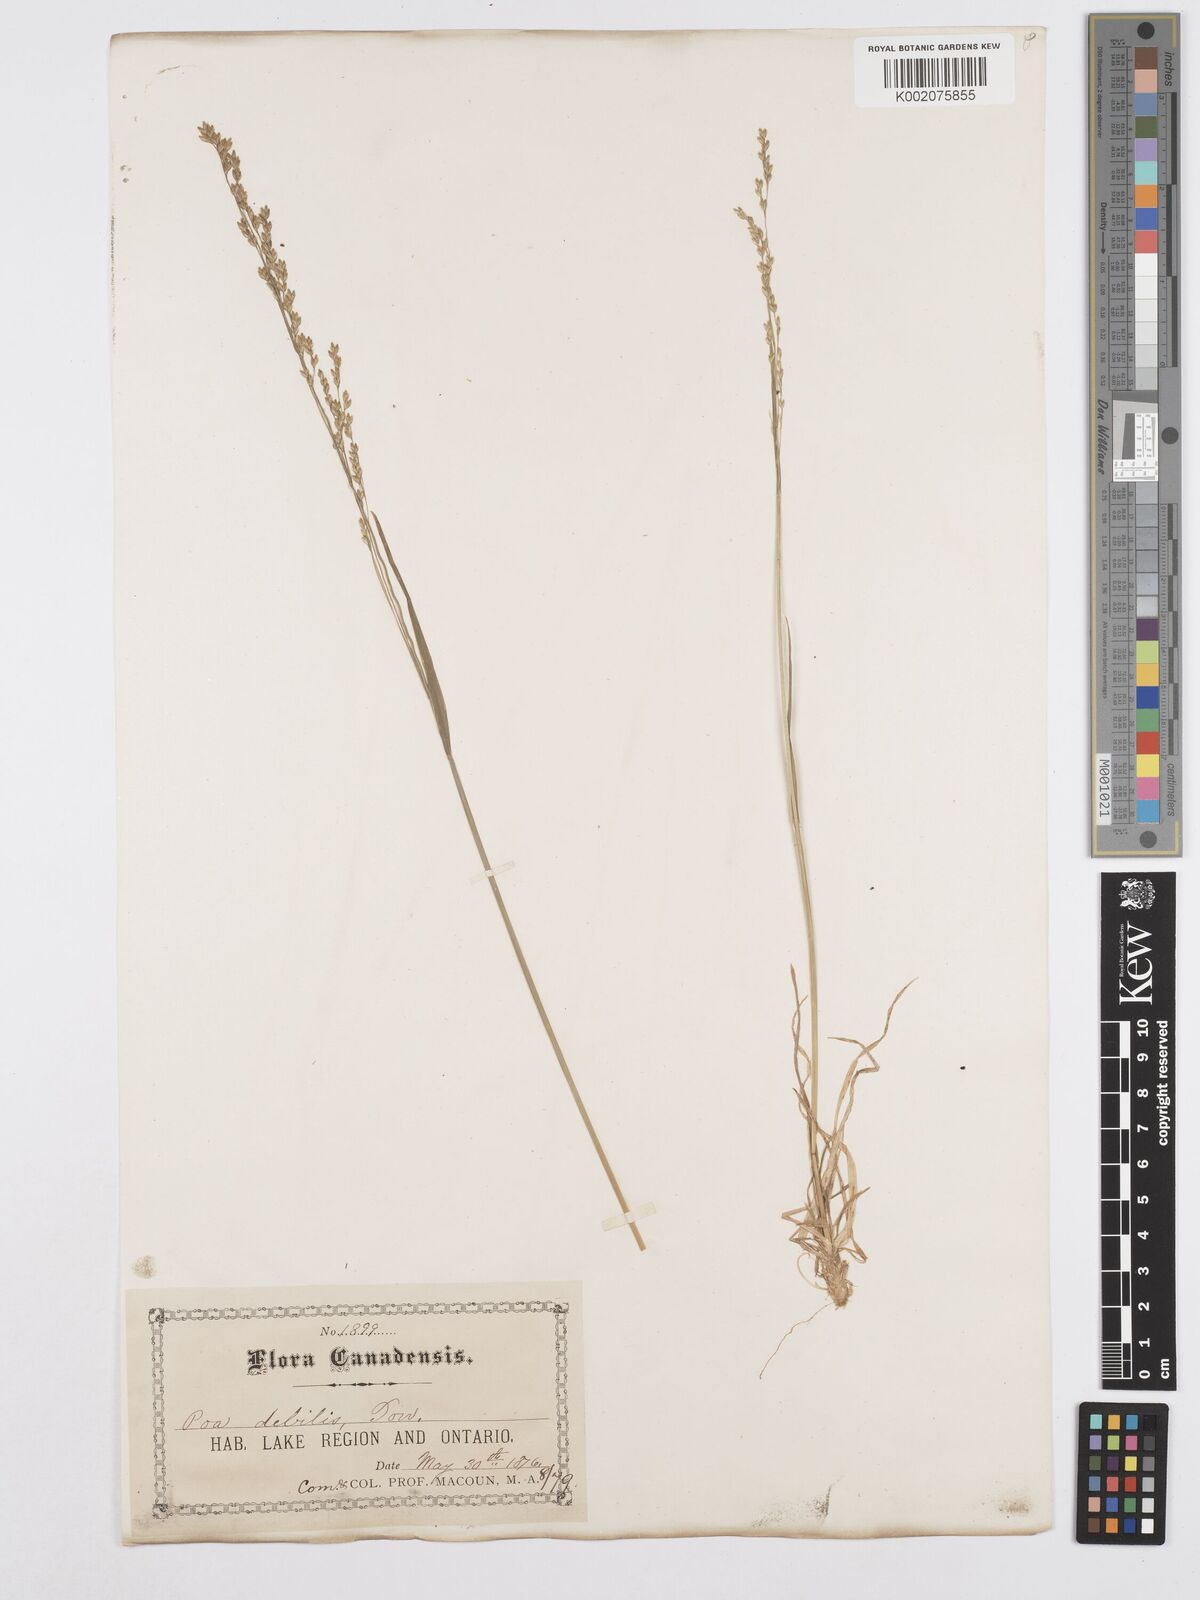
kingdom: Plantae
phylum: Tracheophyta
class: Liliopsida
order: Poales
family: Poaceae
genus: Poa
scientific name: Poa saltuensis
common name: Bushy pasture speargrass
